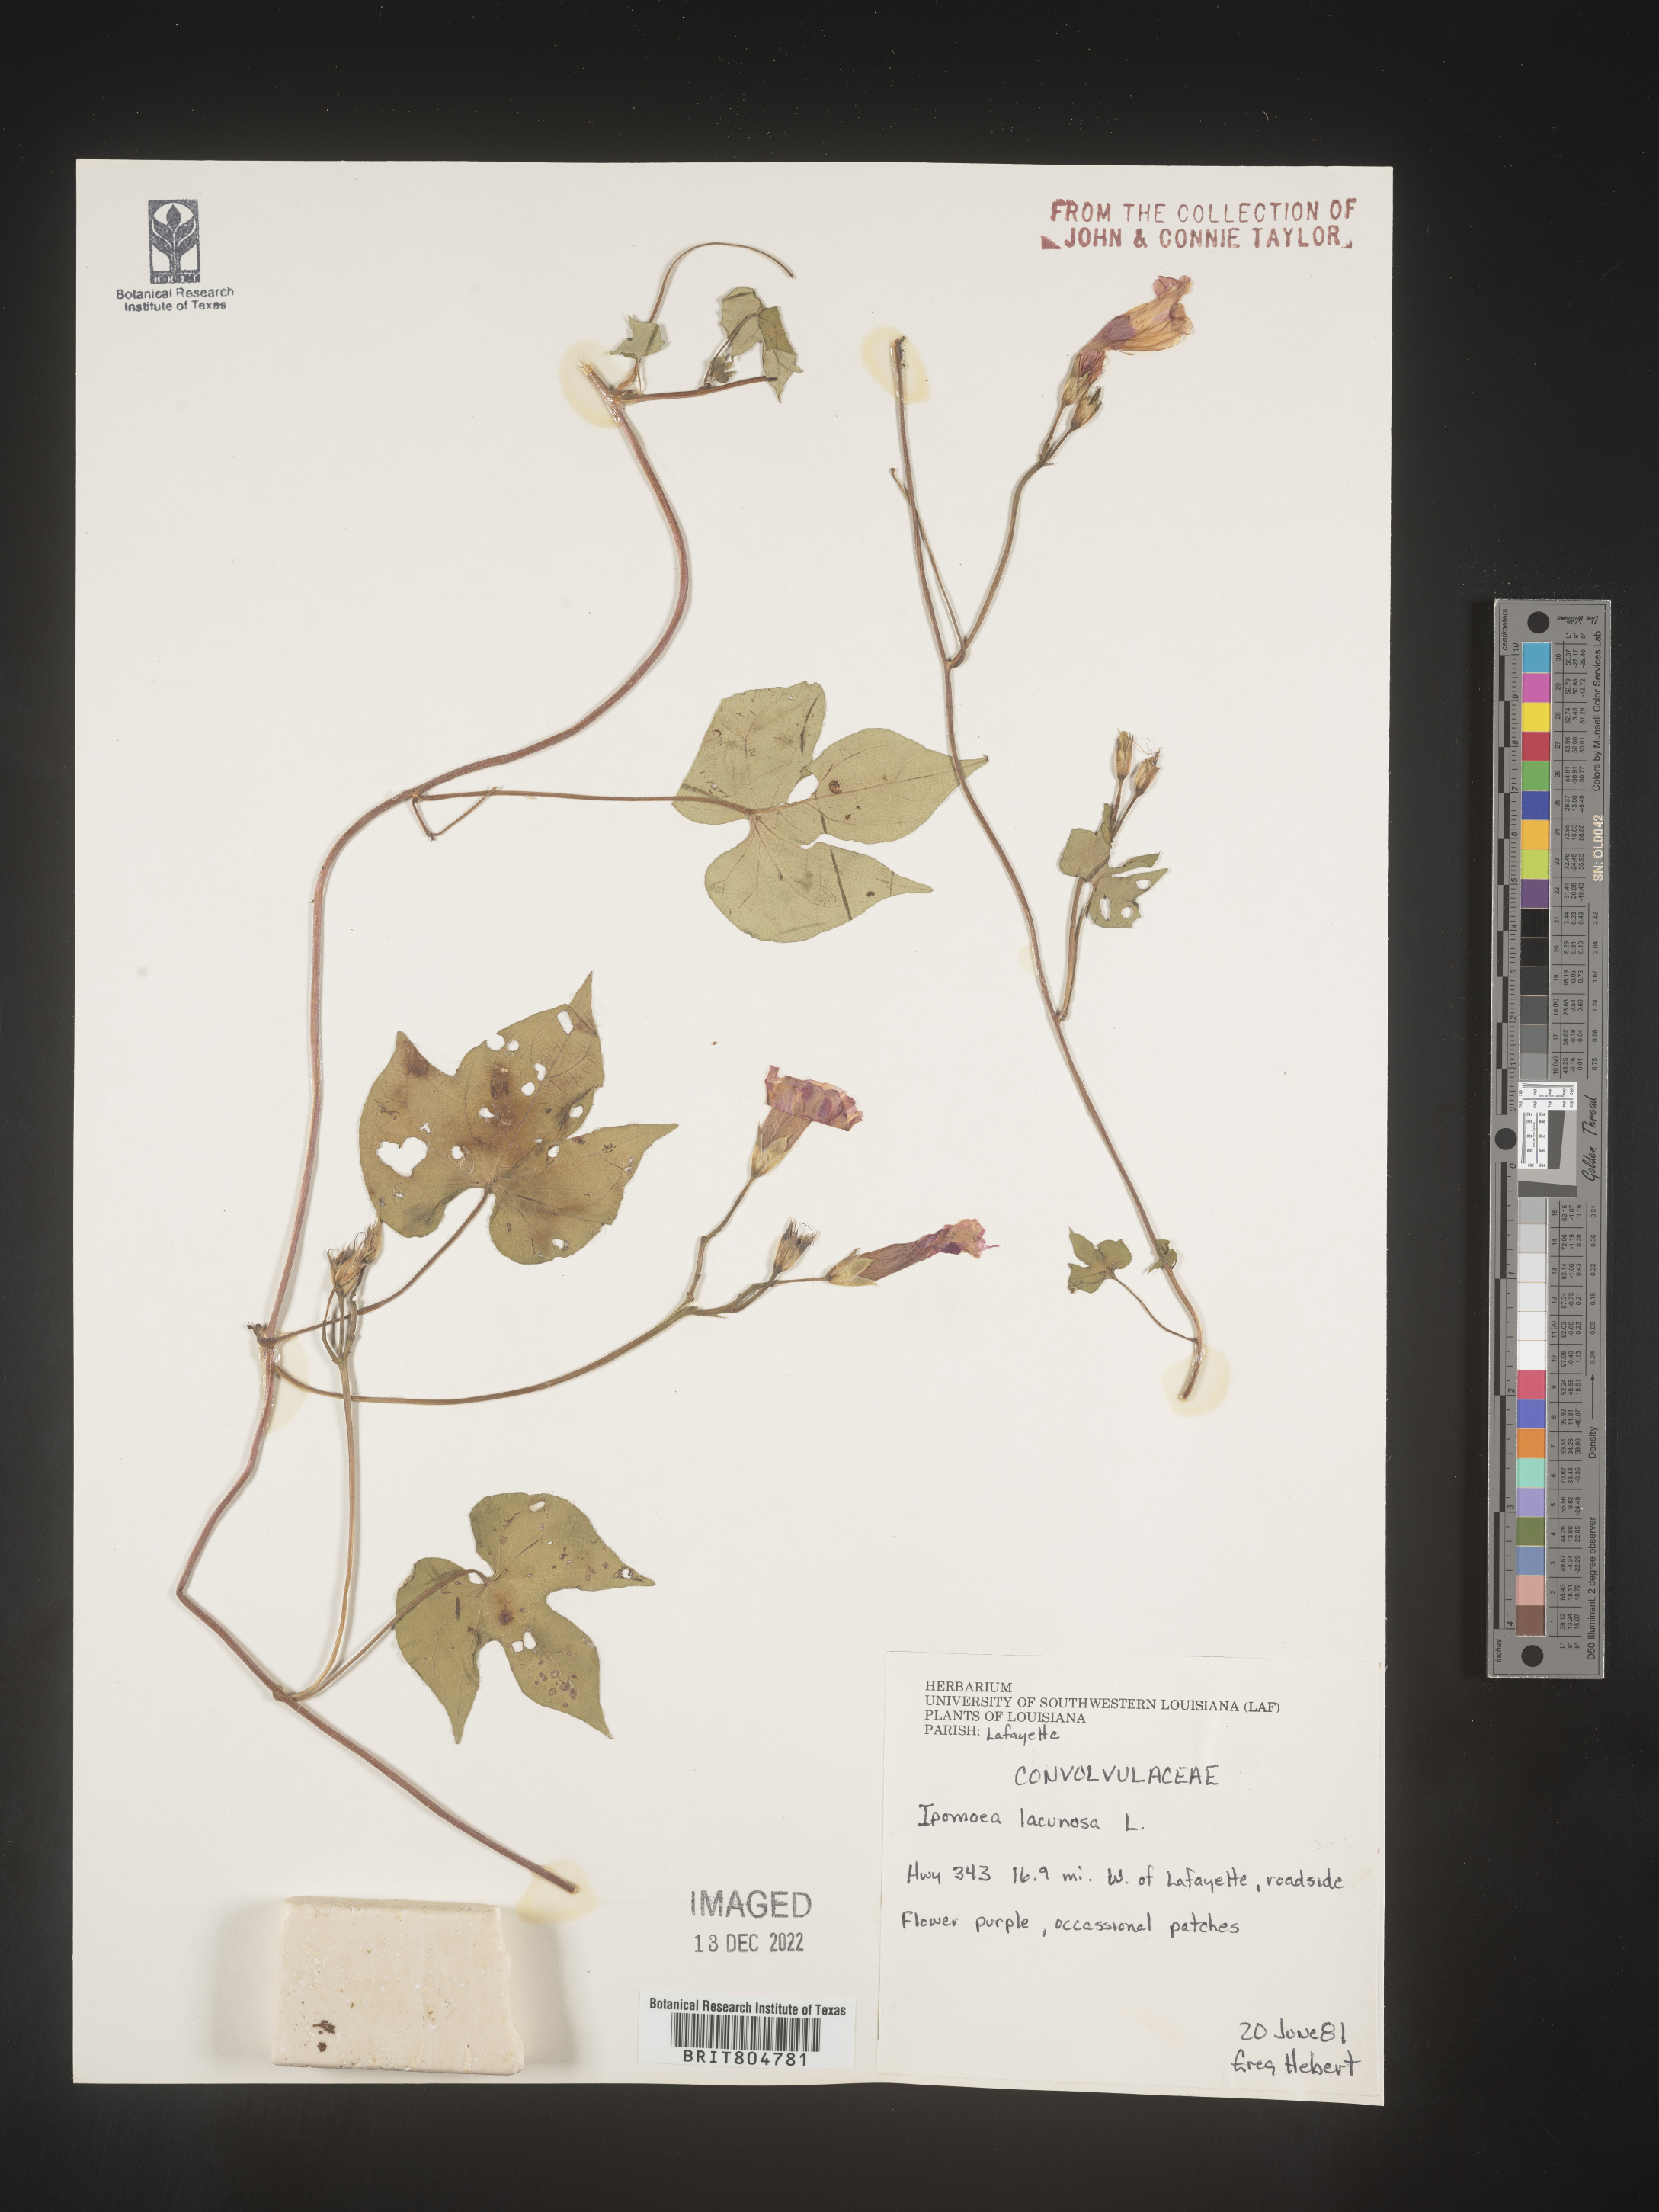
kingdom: Plantae
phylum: Tracheophyta
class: Magnoliopsida
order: Solanales
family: Convolvulaceae
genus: Ipomoea
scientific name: Ipomoea lacunosa
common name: White morning-glory
